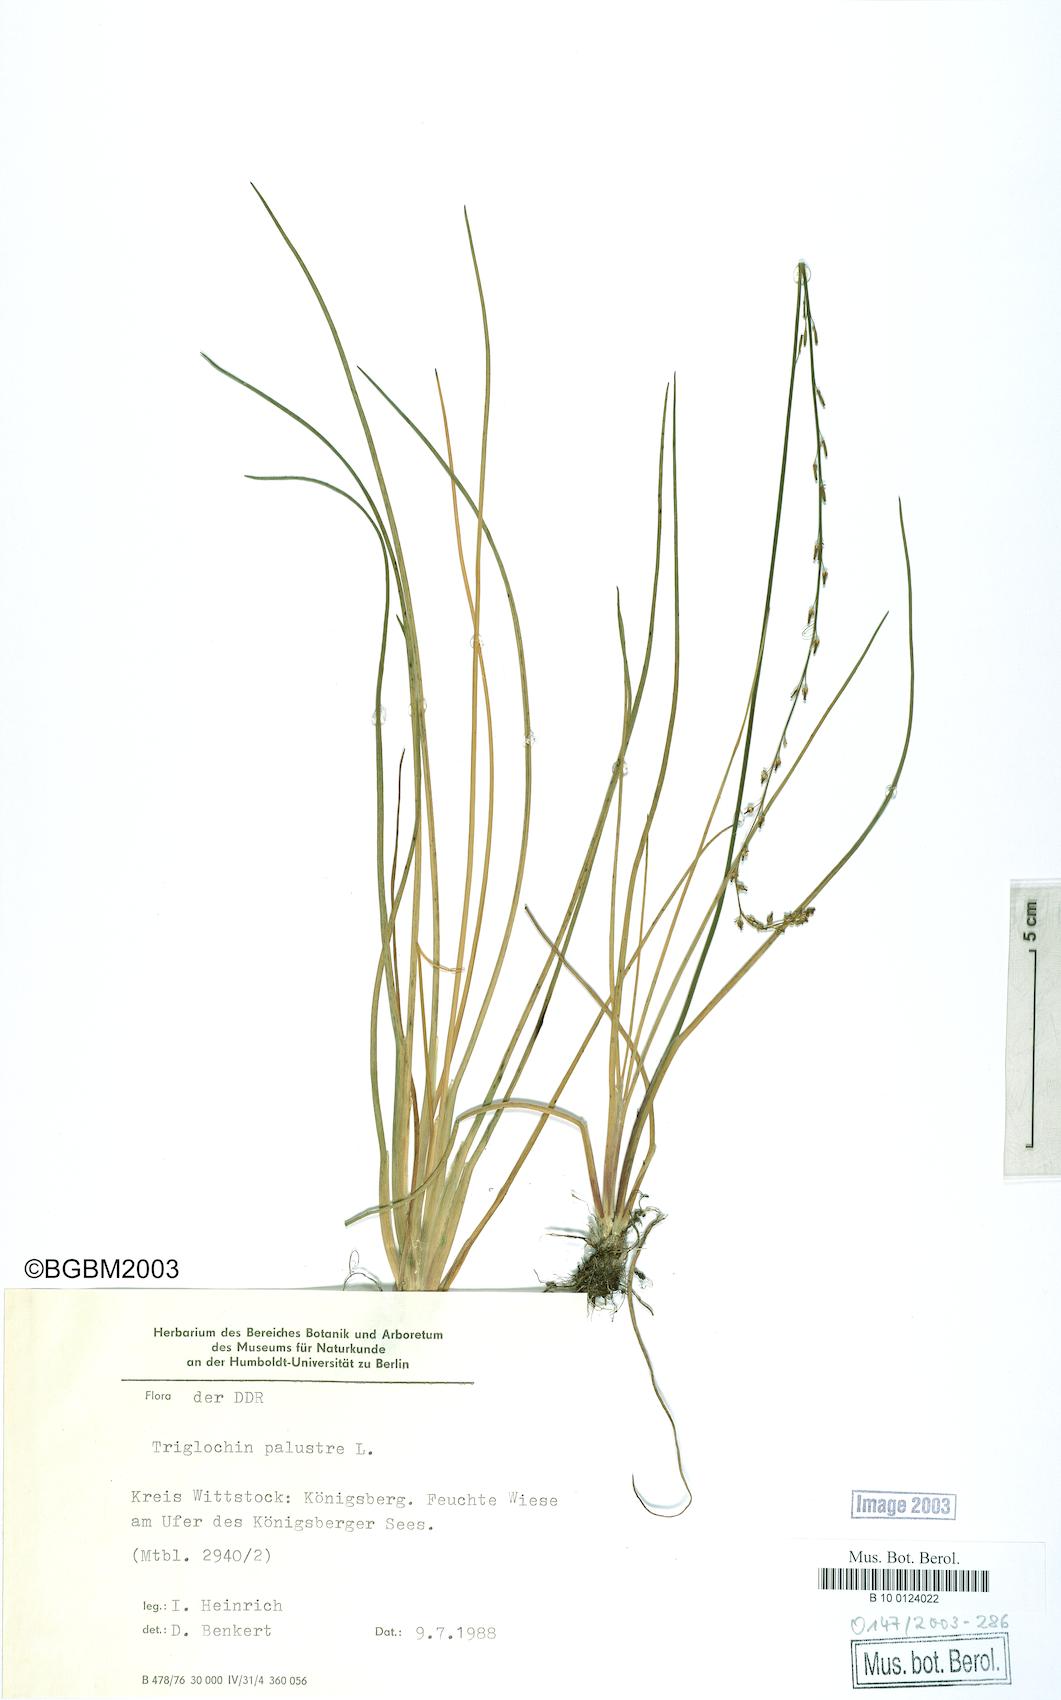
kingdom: Plantae
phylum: Tracheophyta
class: Liliopsida
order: Alismatales
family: Juncaginaceae
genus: Triglochin
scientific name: Triglochin palustris
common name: Marsh arrowgrass
